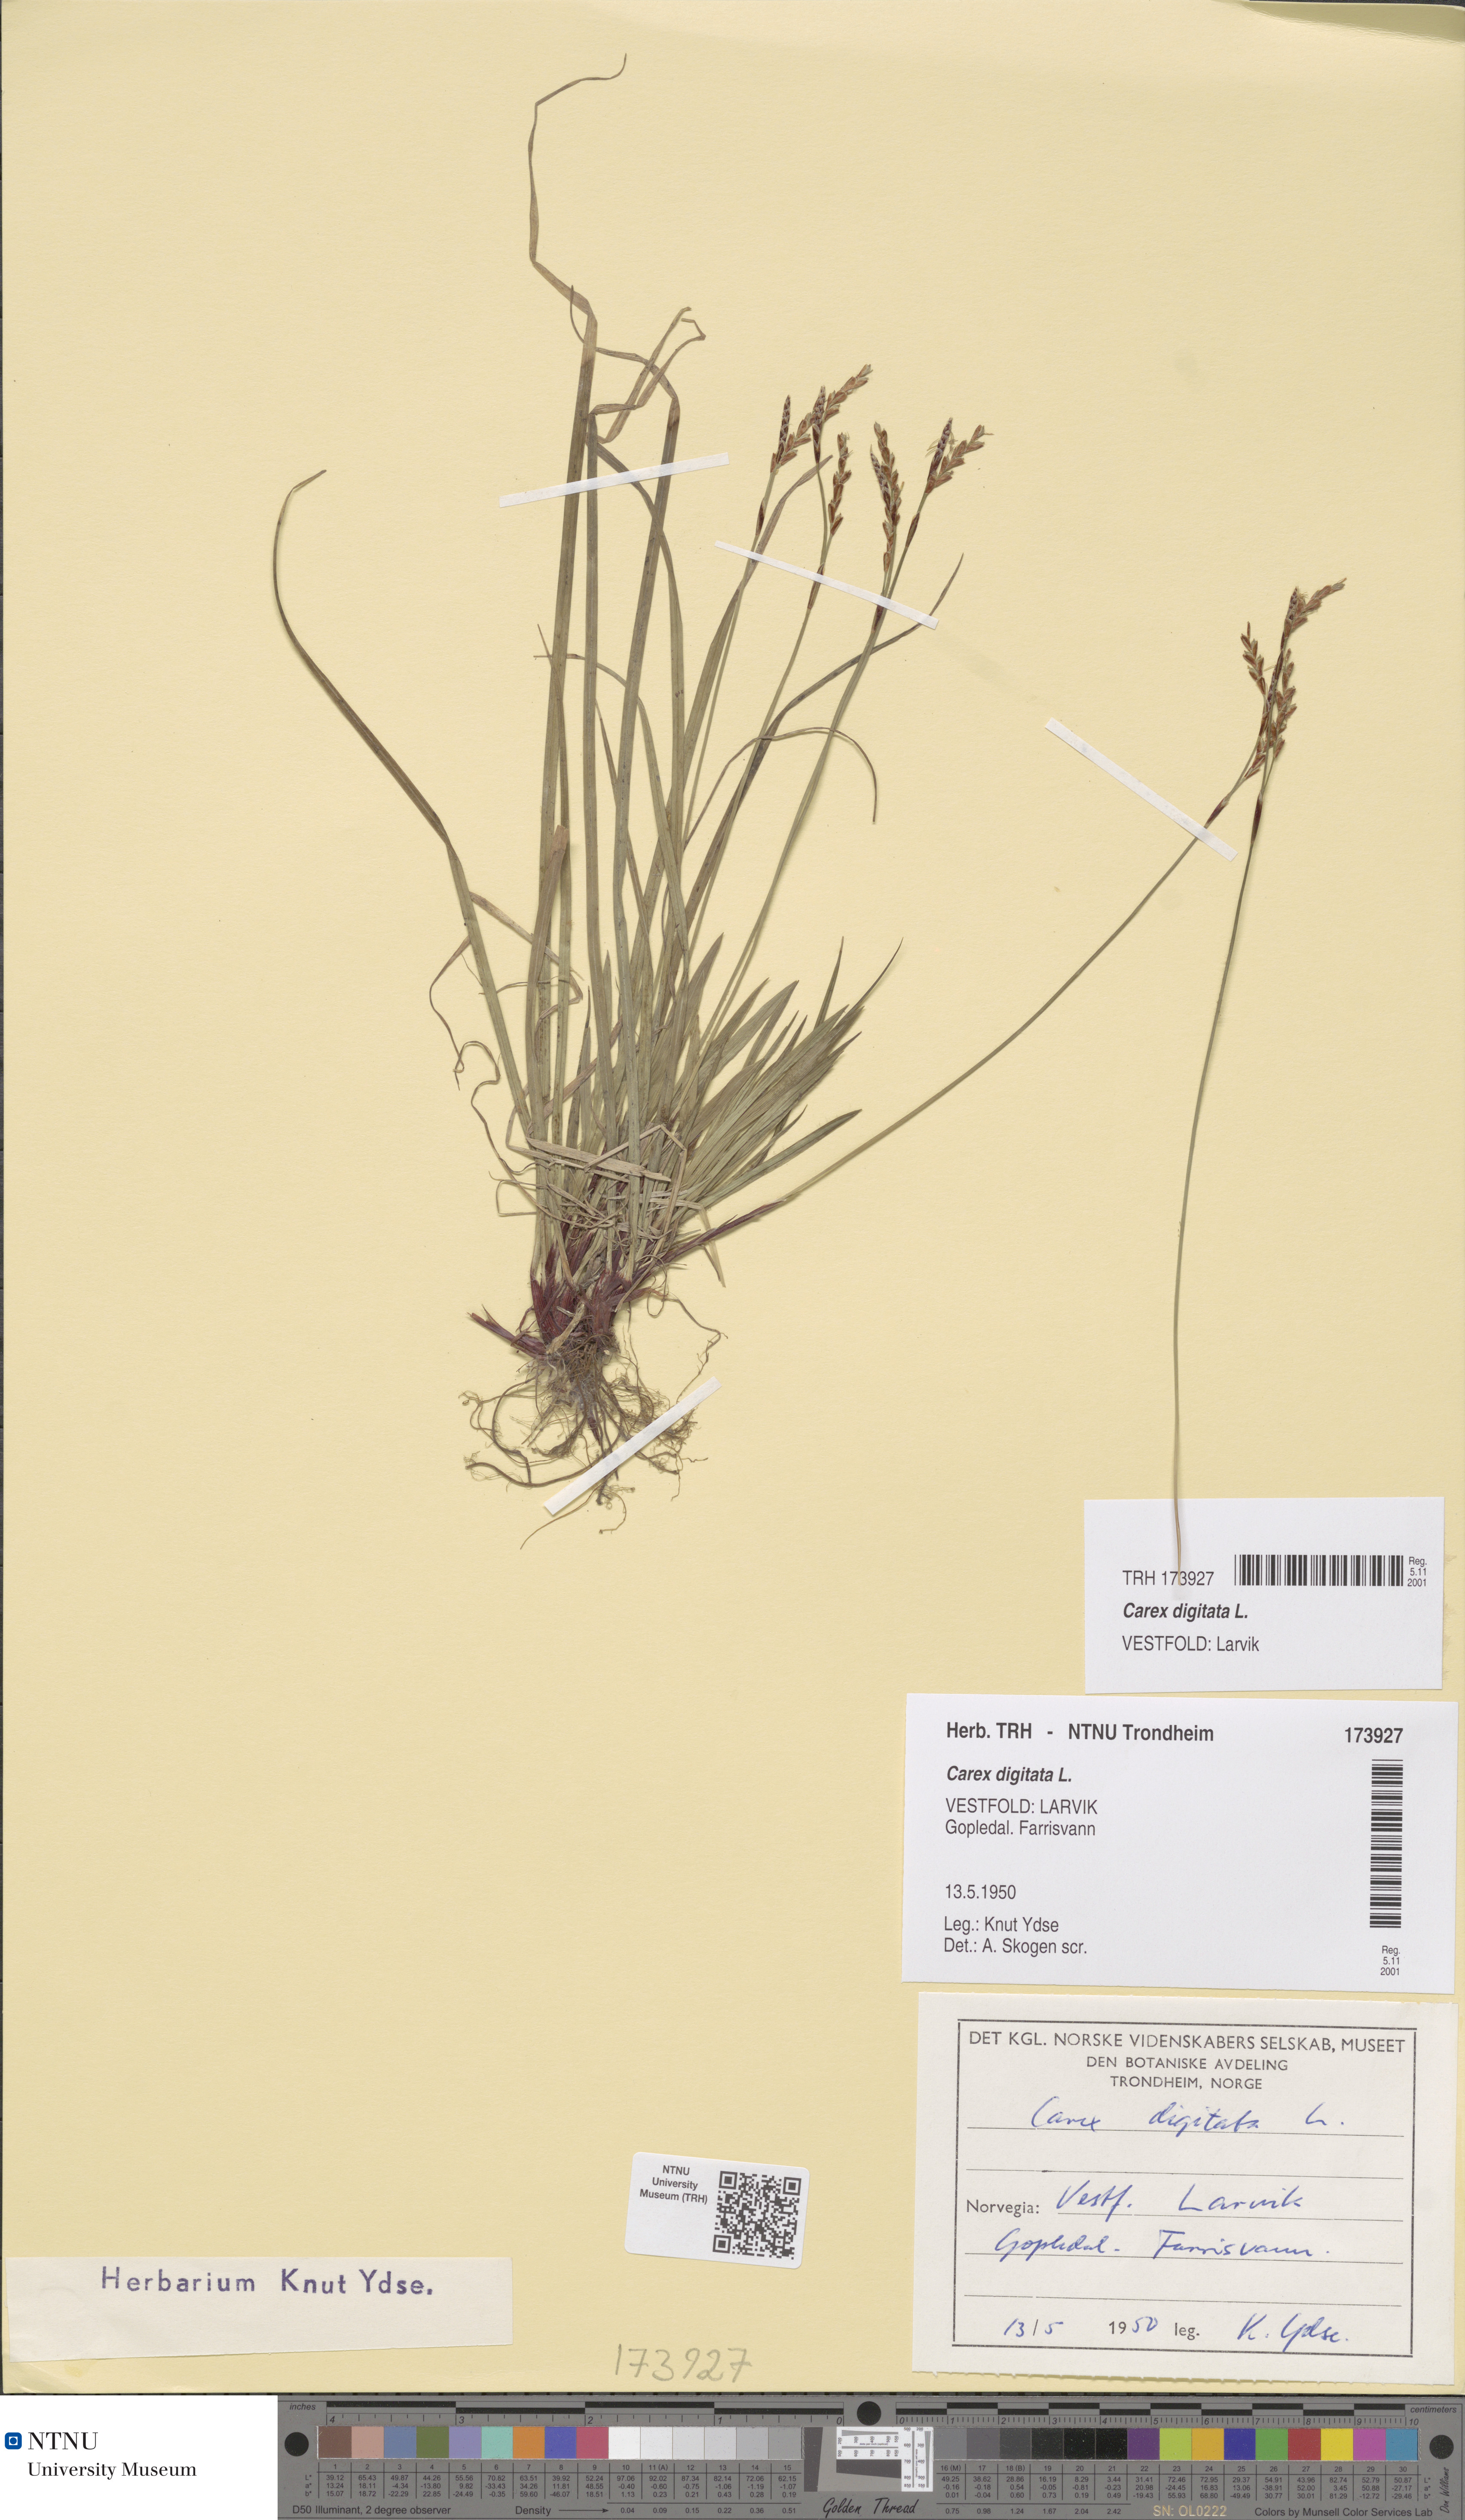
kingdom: Plantae
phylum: Tracheophyta
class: Liliopsida
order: Poales
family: Cyperaceae
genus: Carex
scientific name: Carex digitata
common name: Fingered sedge
